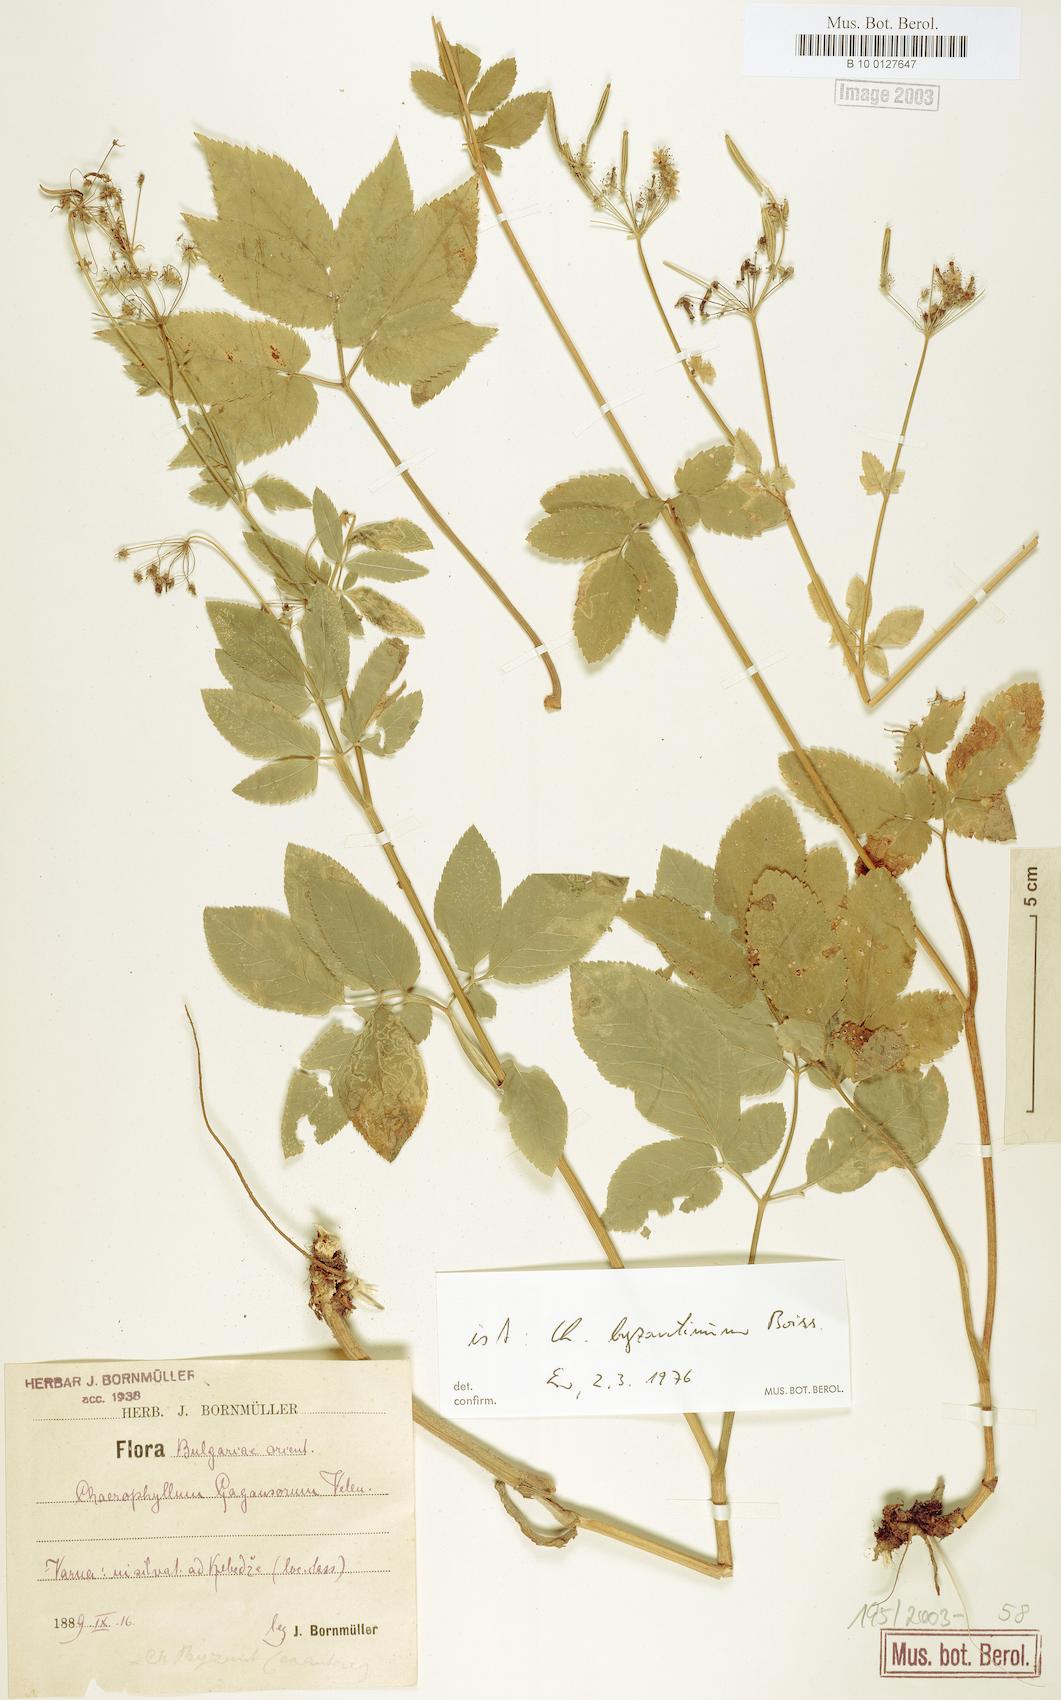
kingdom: Plantae
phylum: Tracheophyta
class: Magnoliopsida
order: Apiales
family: Apiaceae
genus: Chaerophyllum
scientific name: Chaerophyllum byzantinum
